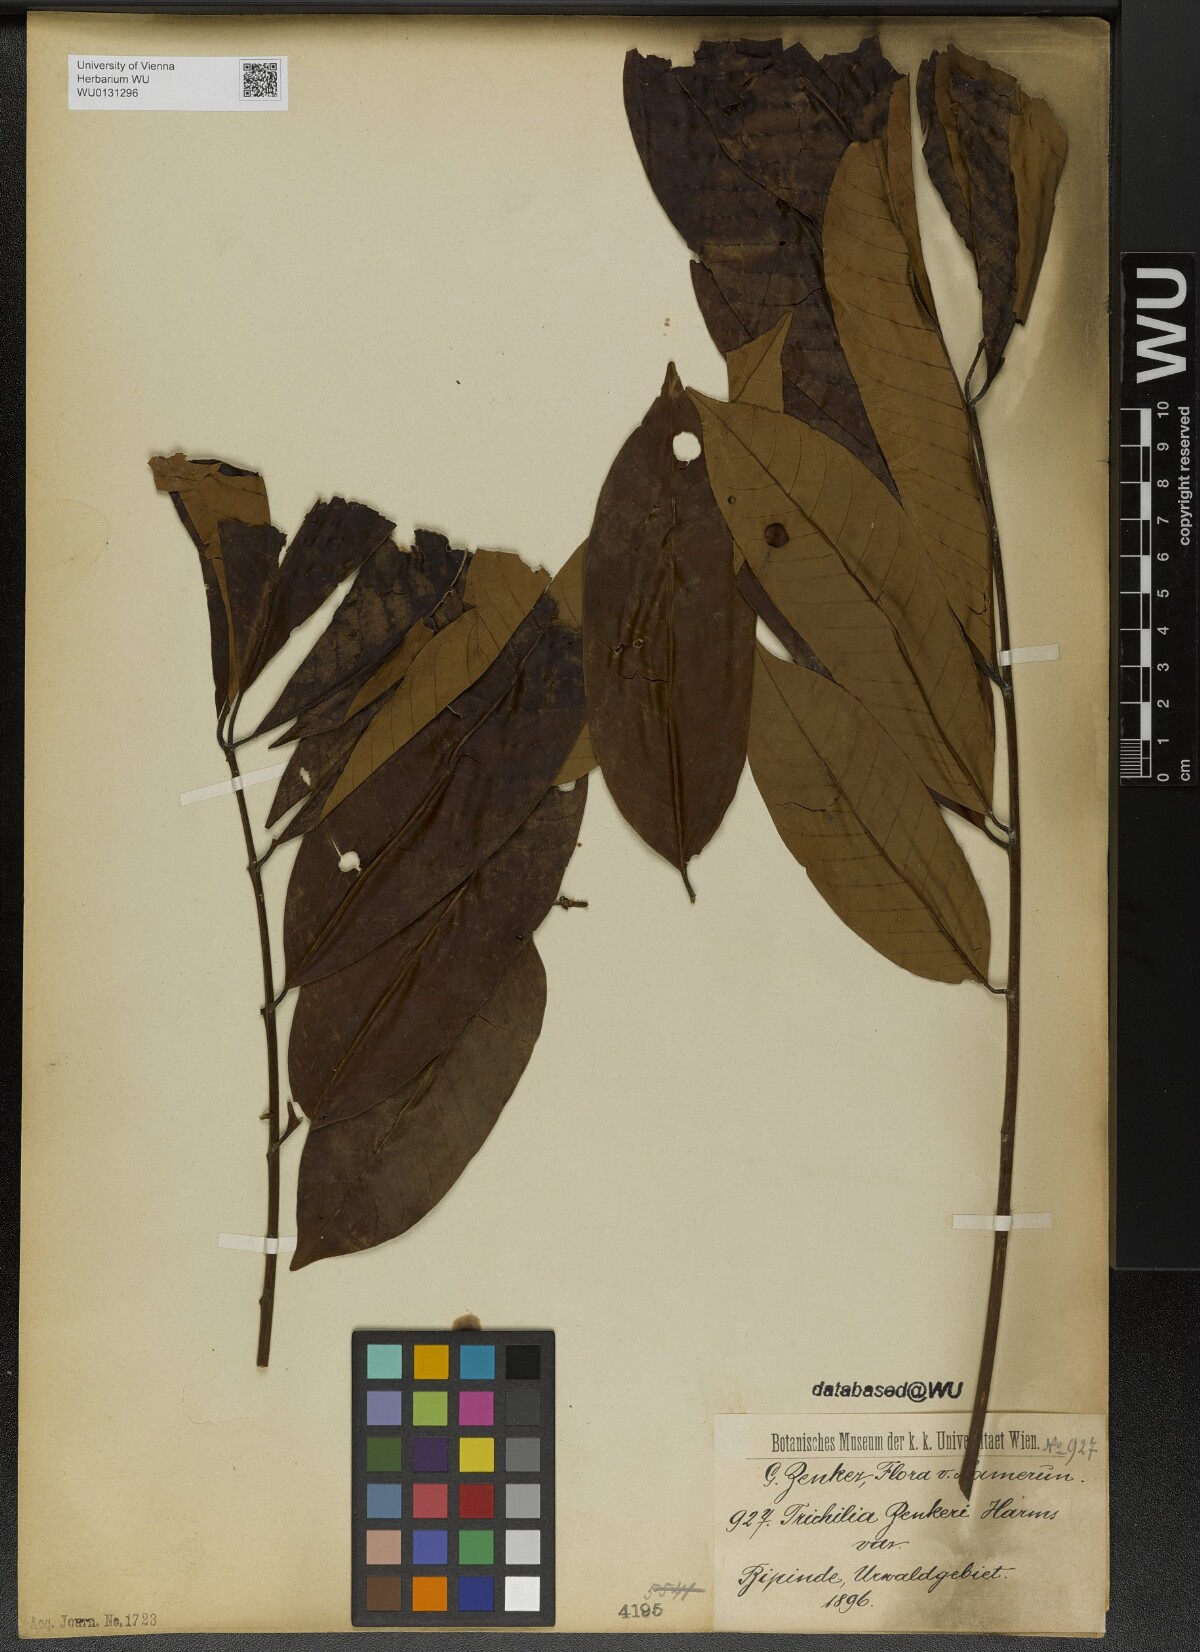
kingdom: Plantae
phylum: Tracheophyta
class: Magnoliopsida
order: Sapindales
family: Meliaceae
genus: Trichilia
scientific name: Trichilia welwitschii
